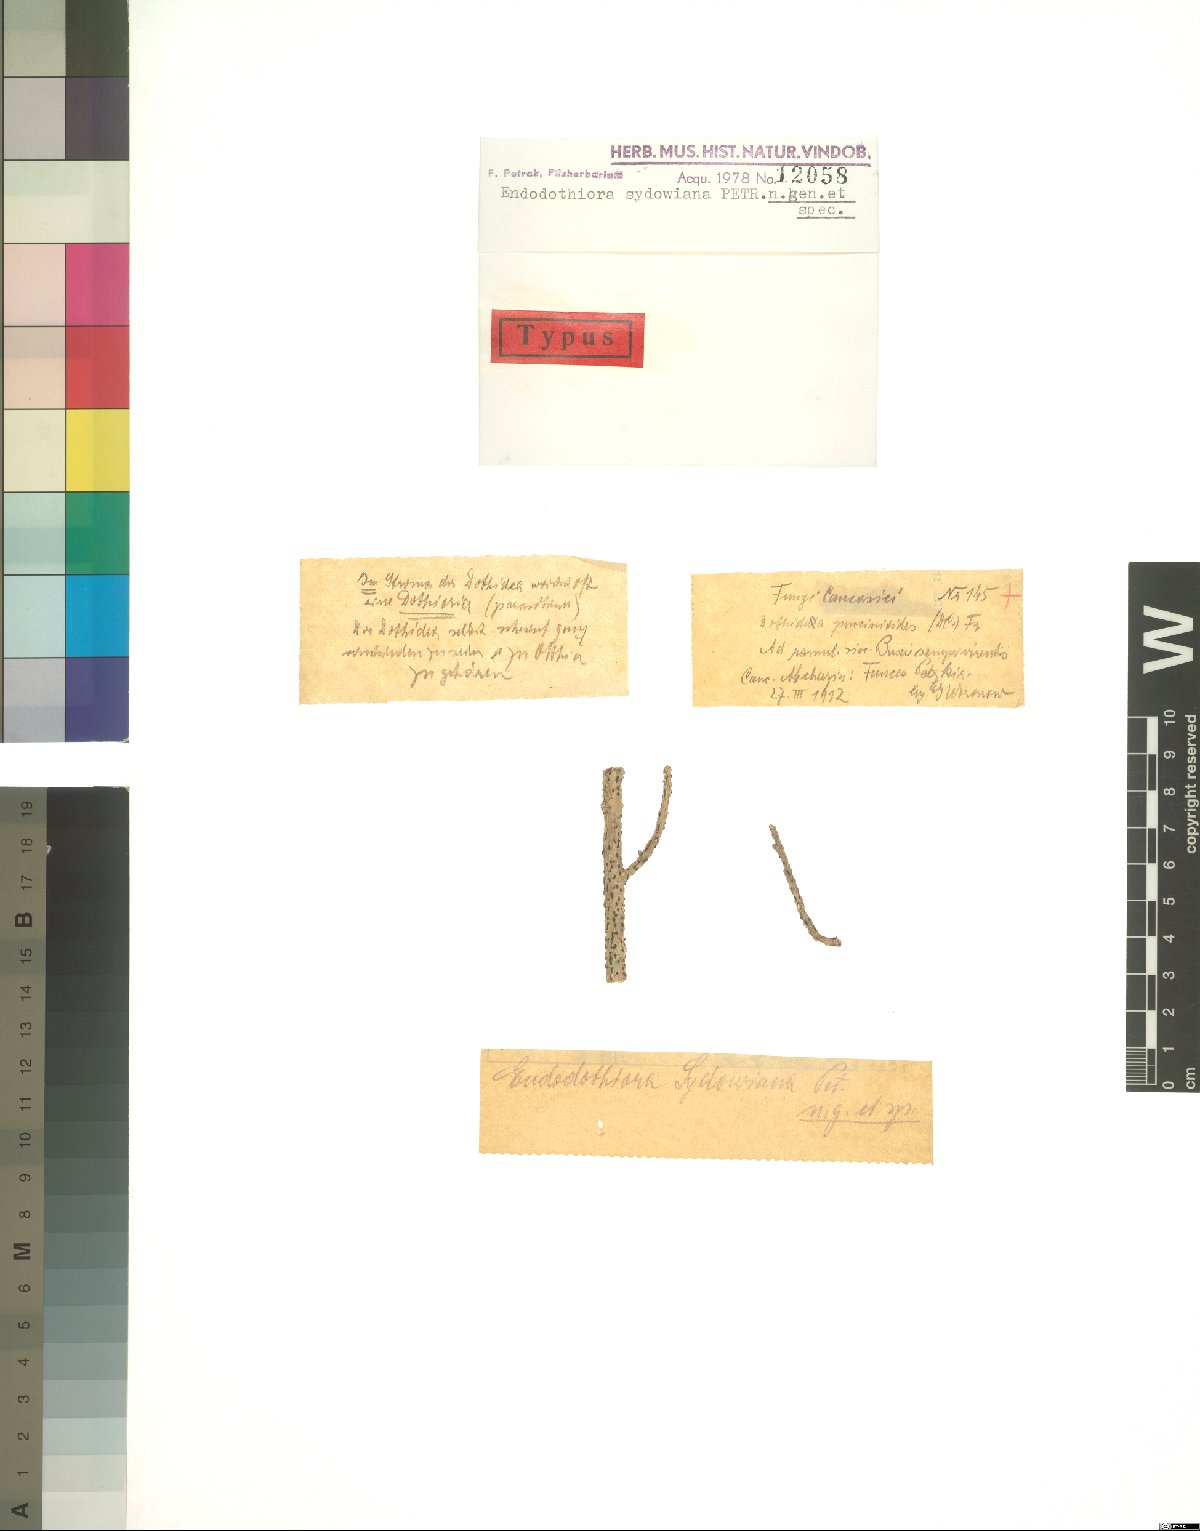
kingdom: Fungi
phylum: Ascomycota
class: Dothideomycetes
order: Dothideales
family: Dothioraceae
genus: Endodothiora
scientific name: Endodothiora sydowiana
